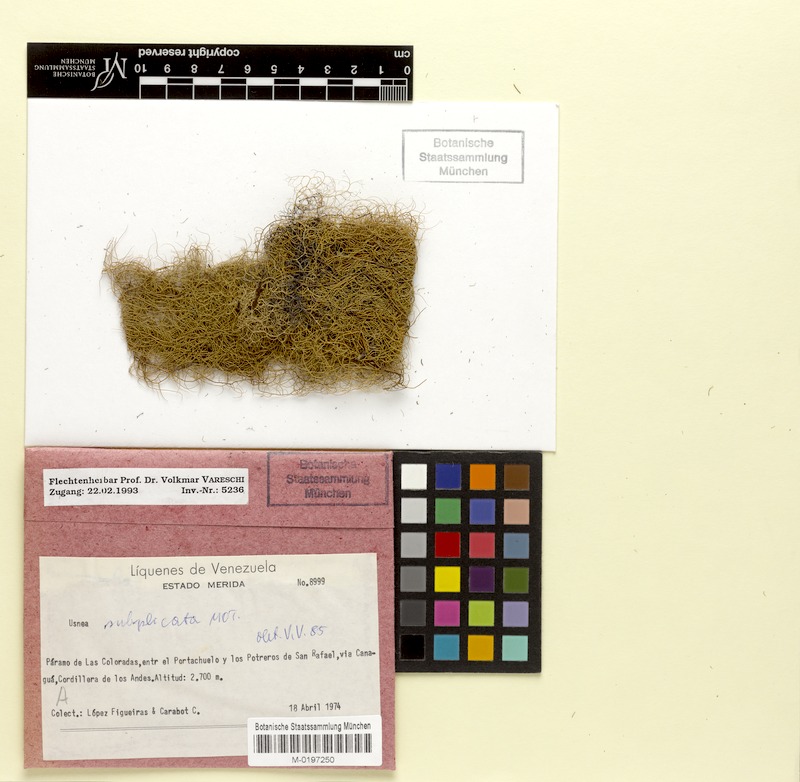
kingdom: Fungi
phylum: Ascomycota
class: Lecanoromycetes
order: Lecanorales
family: Parmeliaceae
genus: Usnea
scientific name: Usnea subgracilis
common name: Beard lichen
